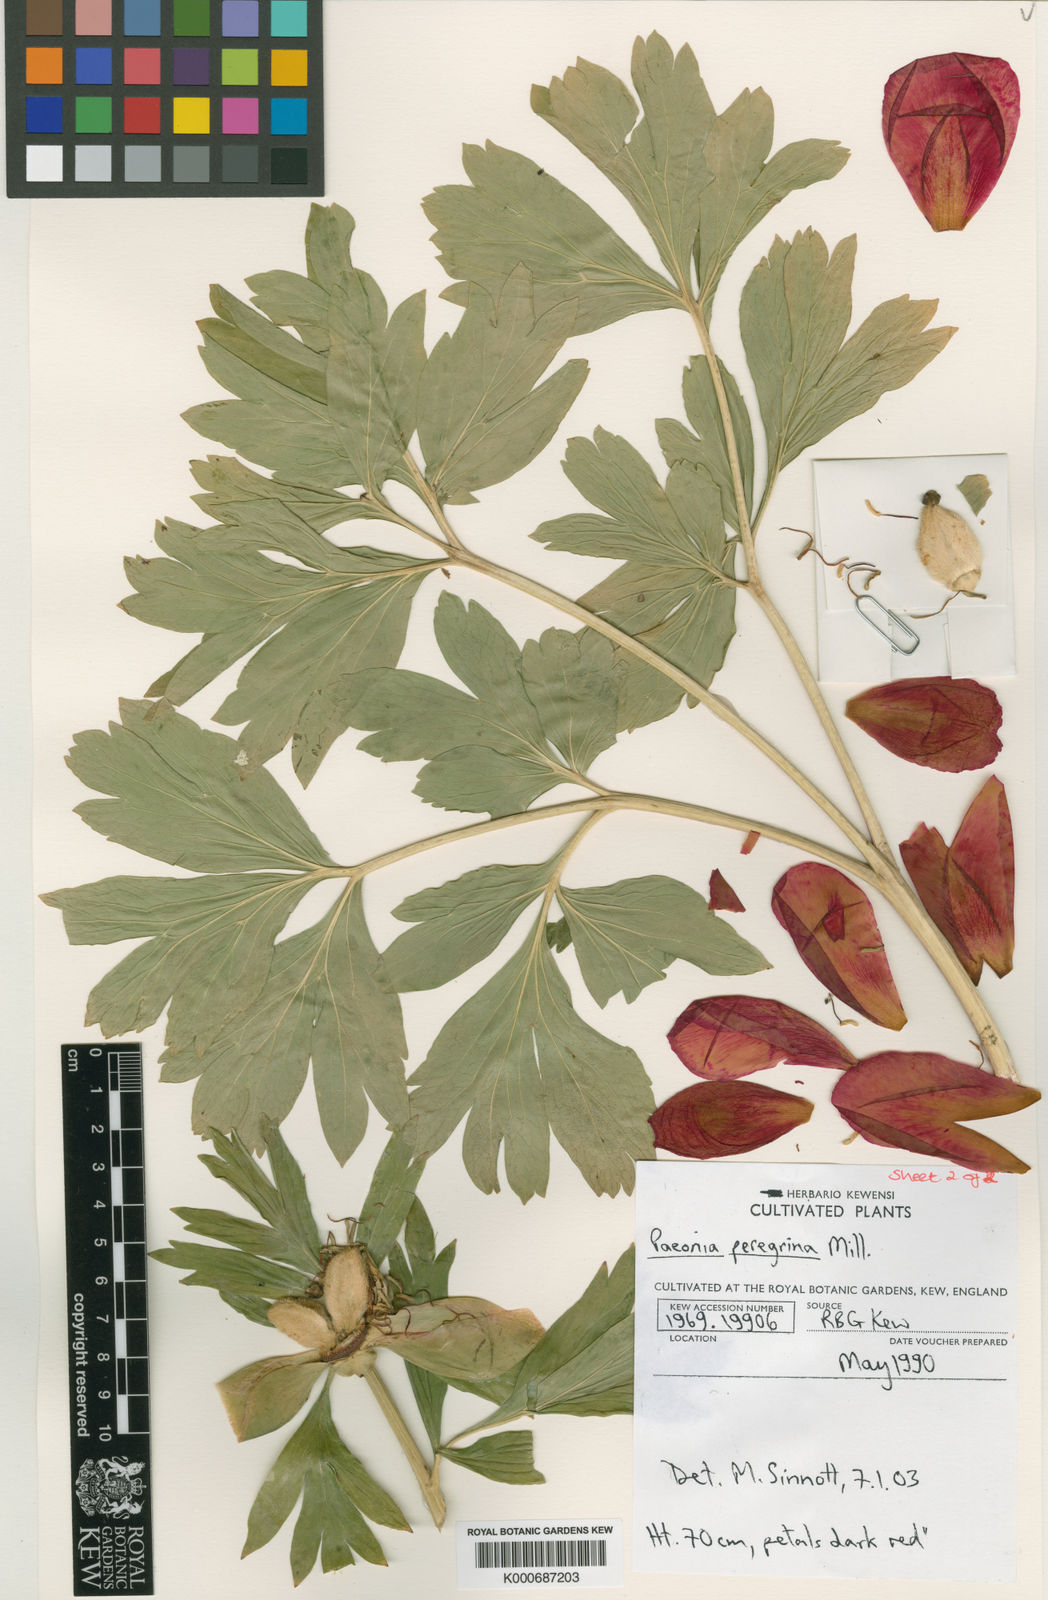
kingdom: Plantae
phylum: Tracheophyta
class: Magnoliopsida
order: Saxifragales
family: Paeoniaceae
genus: Paeonia
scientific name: Paeonia peregrina
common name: Scarlet peony
